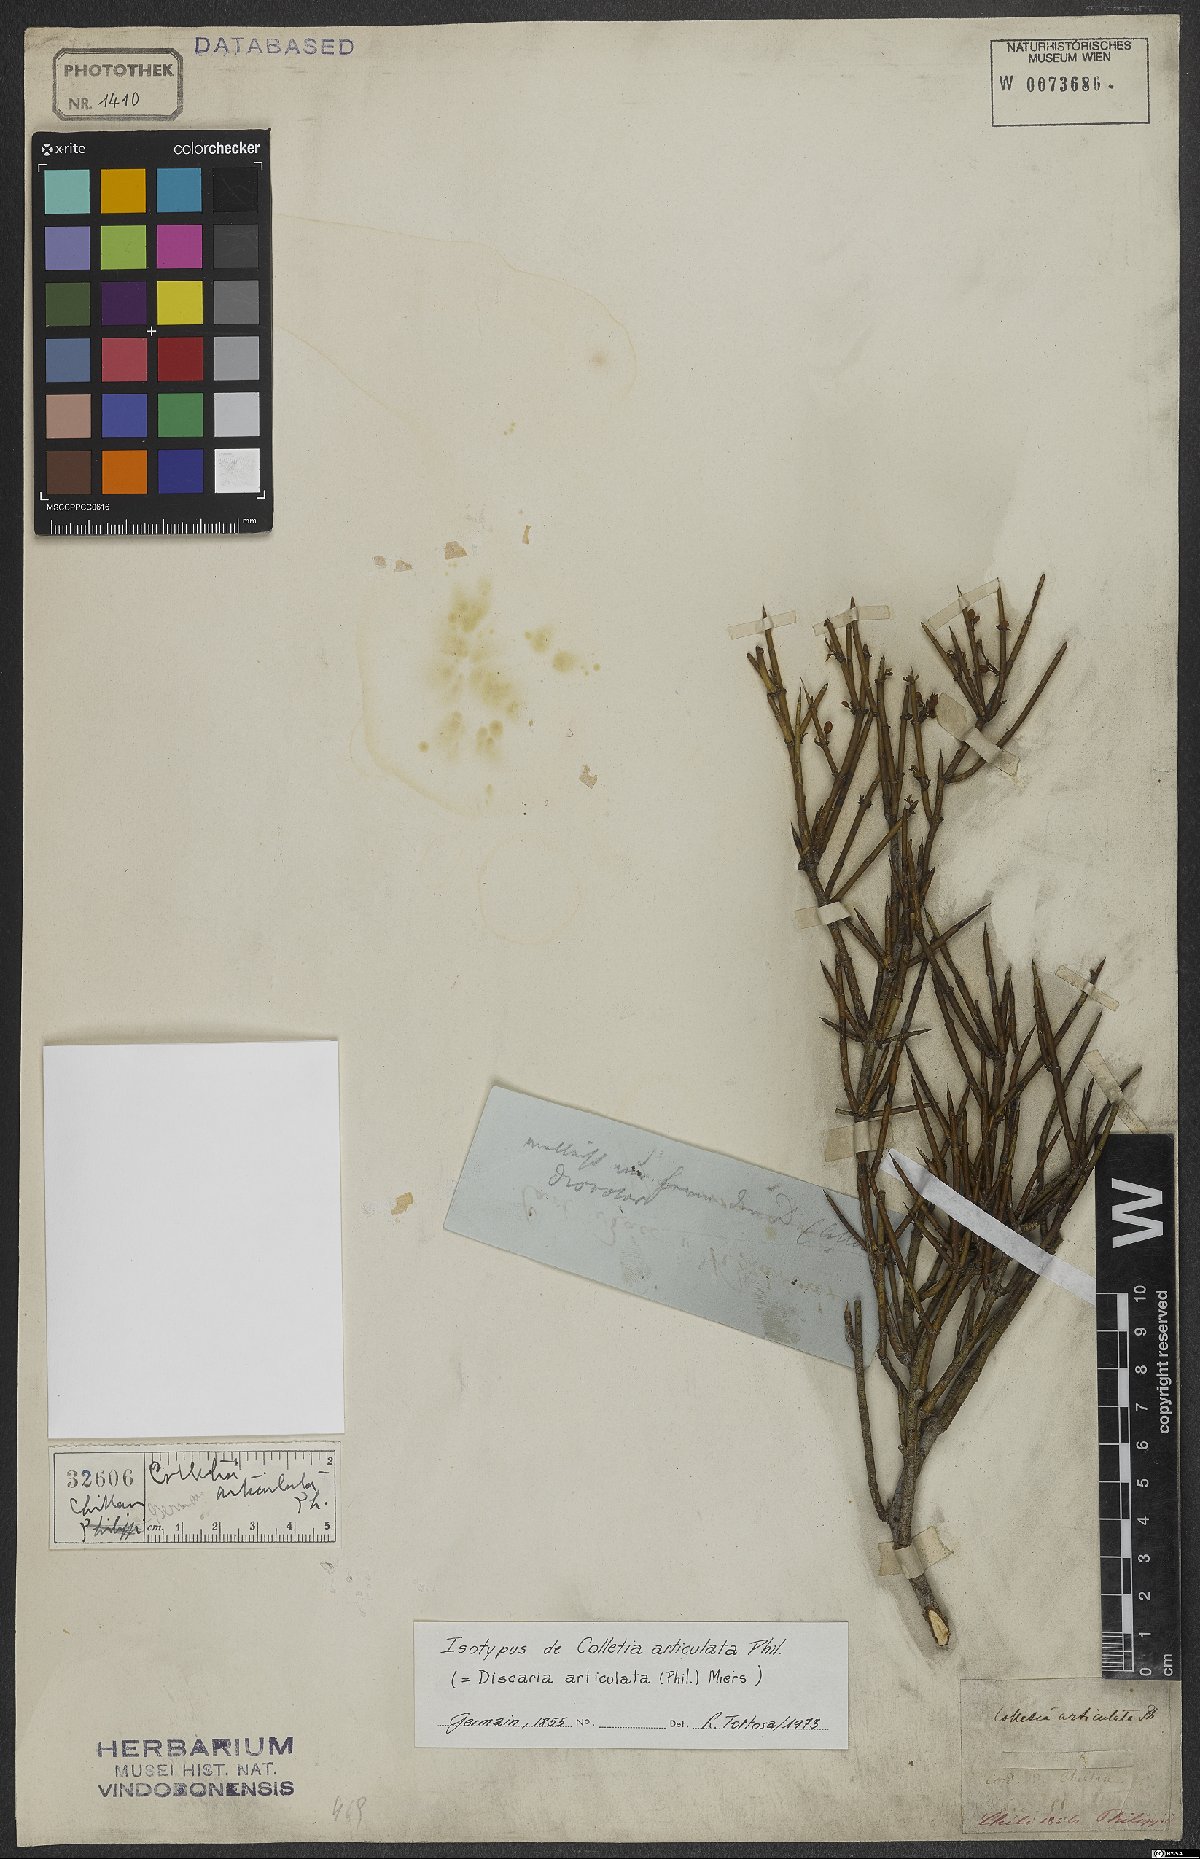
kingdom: Plantae
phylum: Tracheophyta
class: Magnoliopsida
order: Rosales
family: Rhamnaceae
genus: Discaria
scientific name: Discaria articulata
